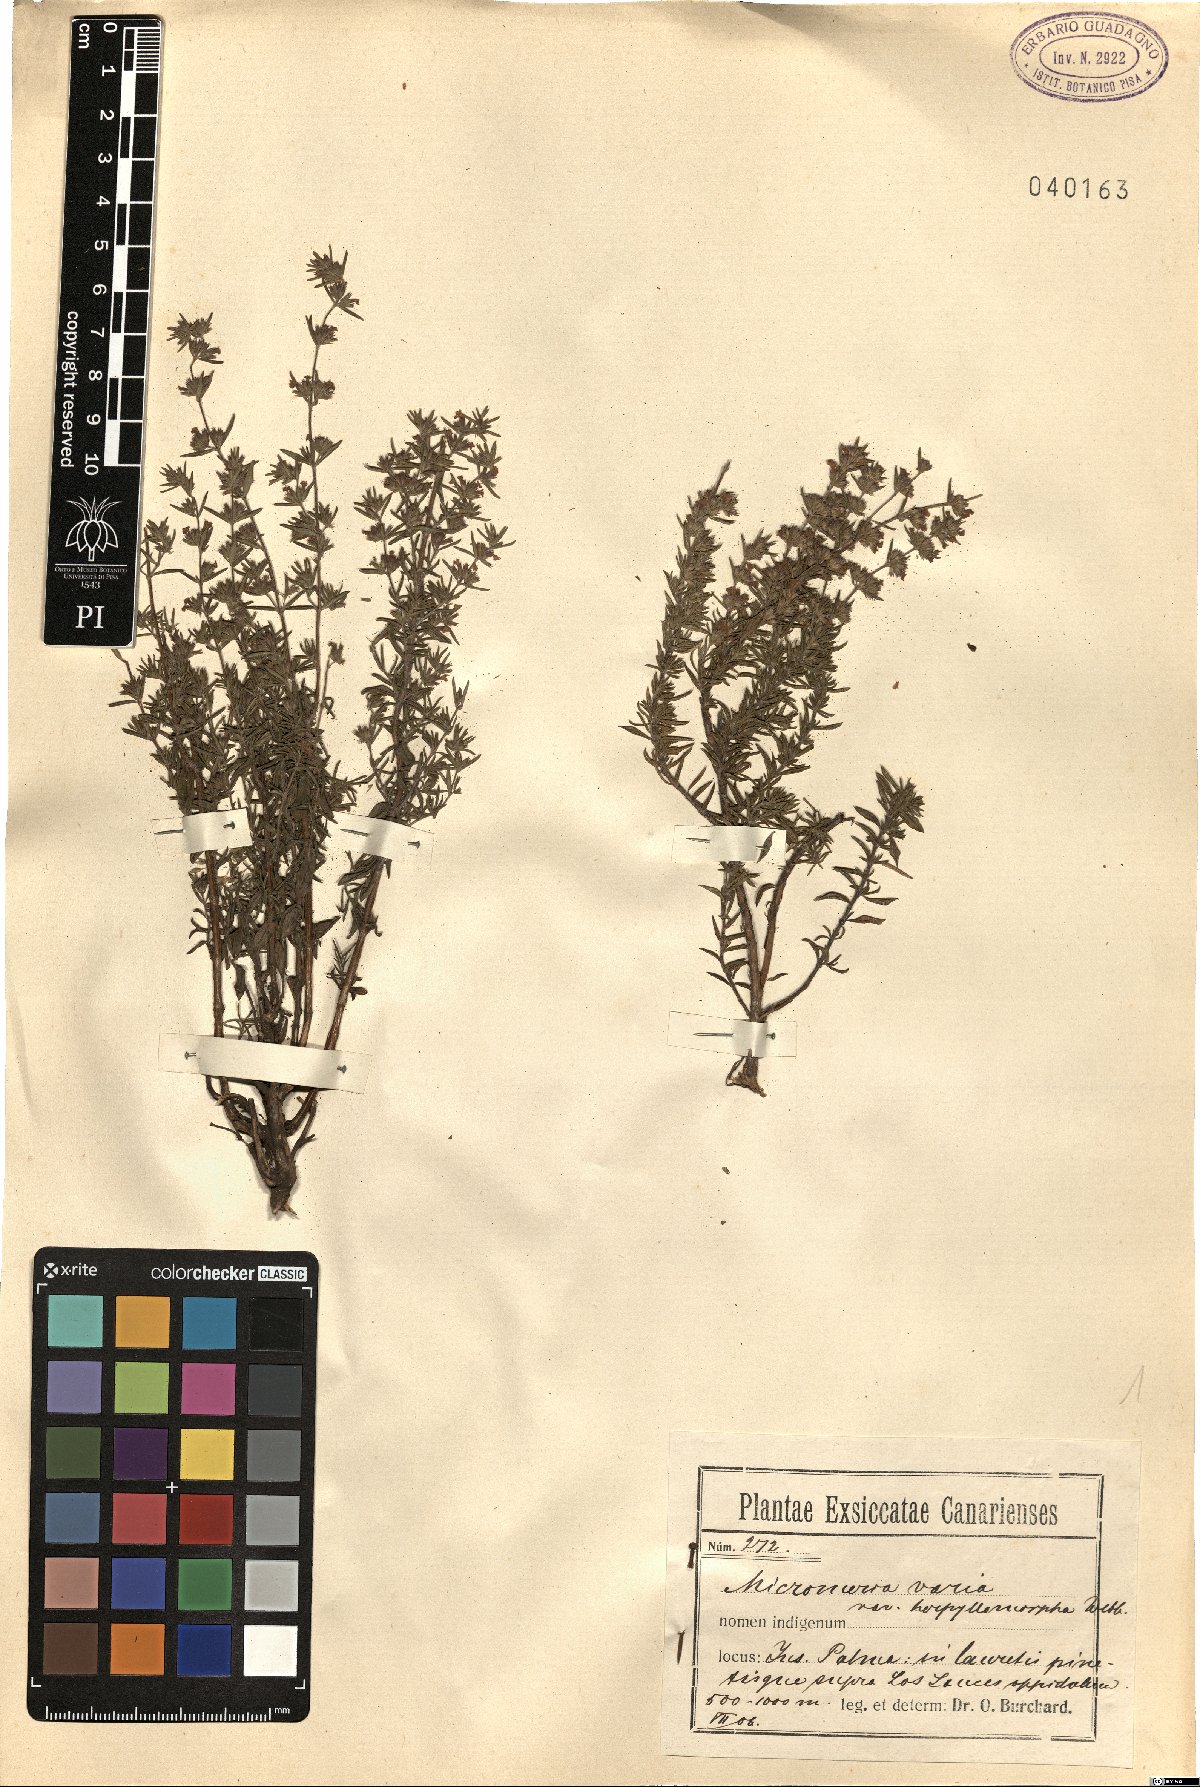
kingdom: Plantae
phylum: Tracheophyta
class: Magnoliopsida
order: Lamiales
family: Lamiaceae
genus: Micromeria
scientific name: Micromeria herpyllomorpha
